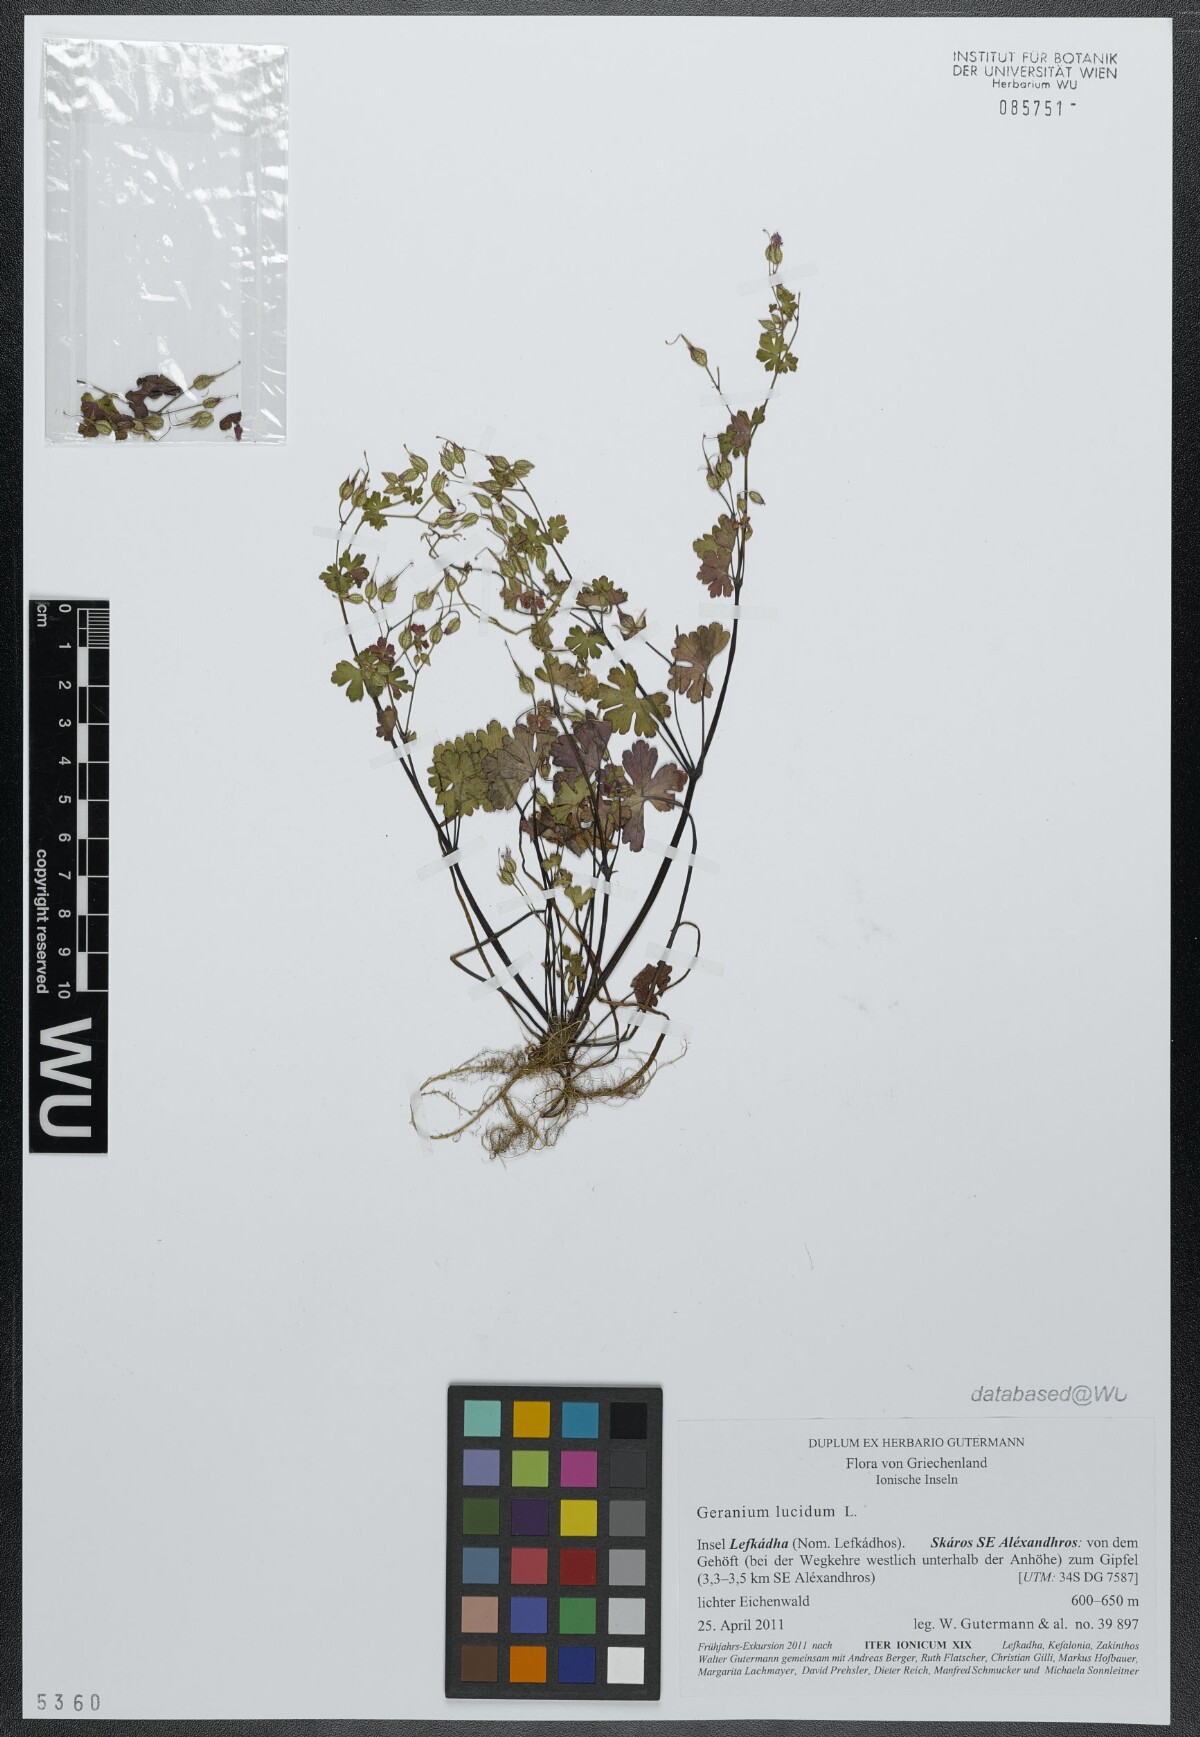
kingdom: Plantae
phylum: Tracheophyta
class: Magnoliopsida
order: Geraniales
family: Geraniaceae
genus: Geranium
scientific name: Geranium lucidum
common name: Shining crane's-bill
